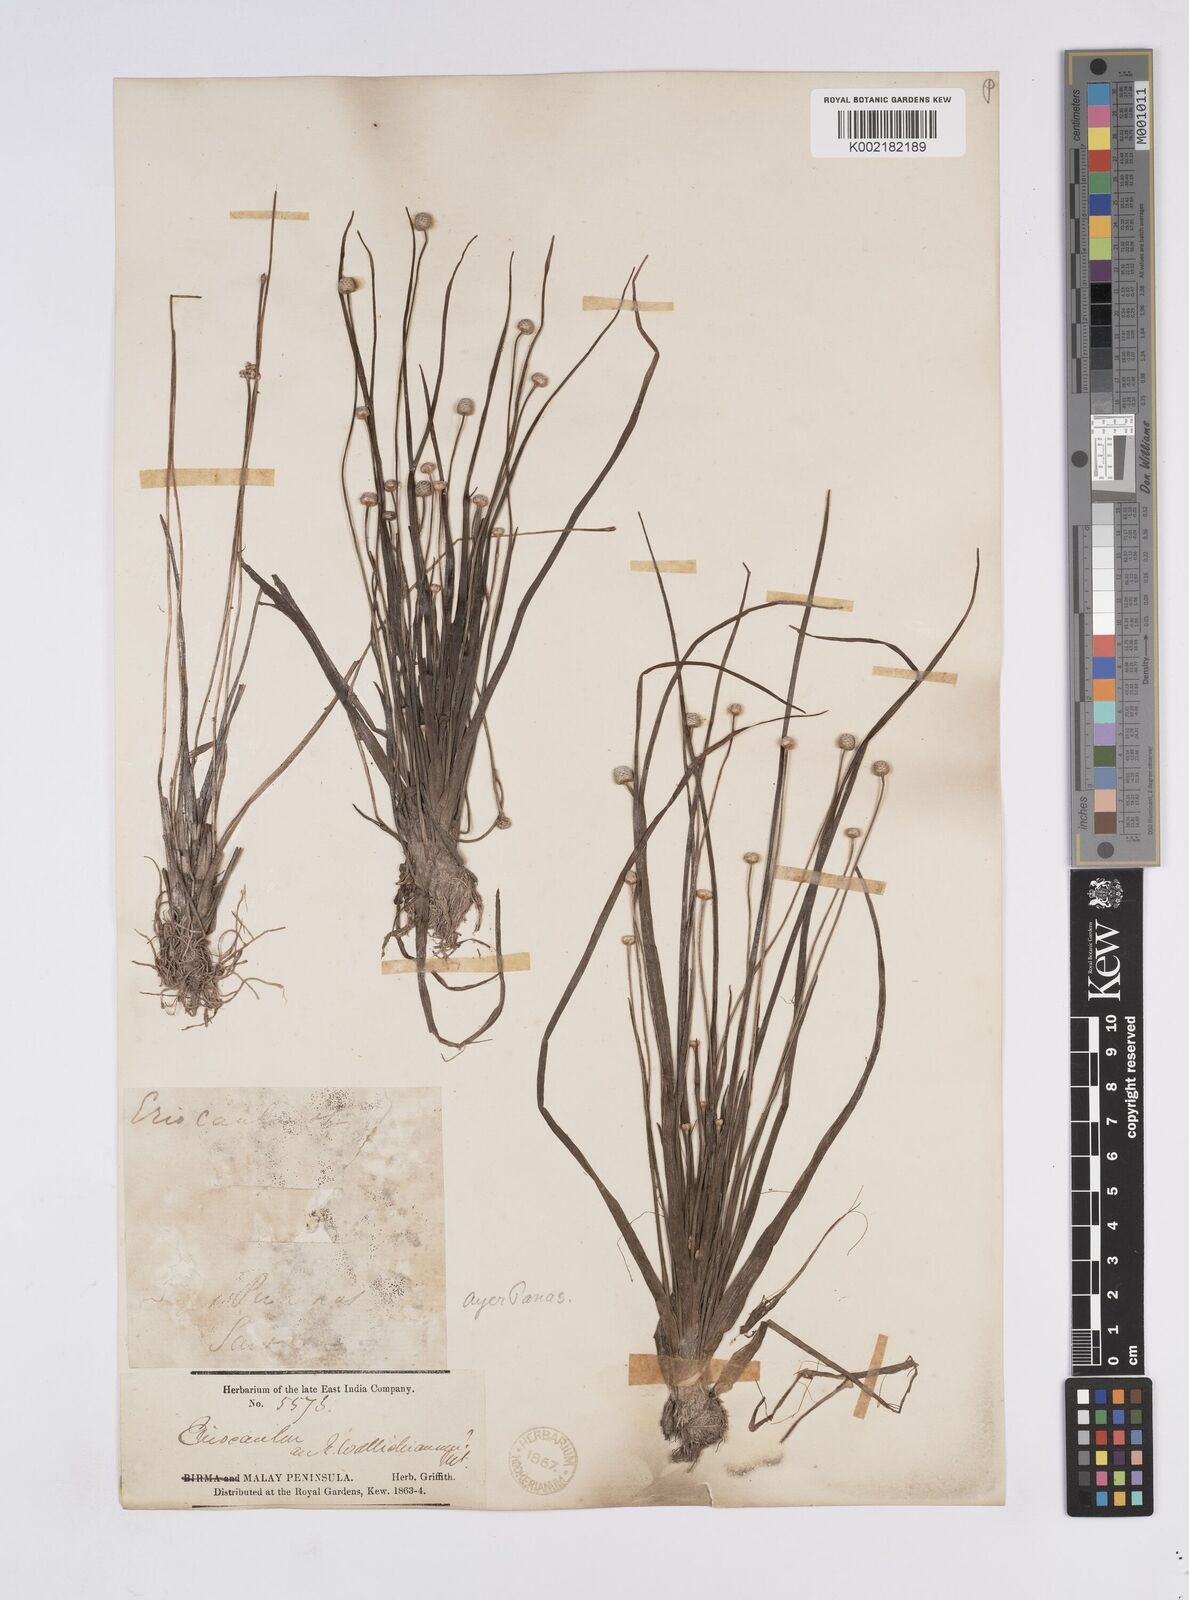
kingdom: Plantae
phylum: Tracheophyta
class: Liliopsida
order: Poales
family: Eriocaulaceae
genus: Eriocaulon
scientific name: Eriocaulon sexangulare
